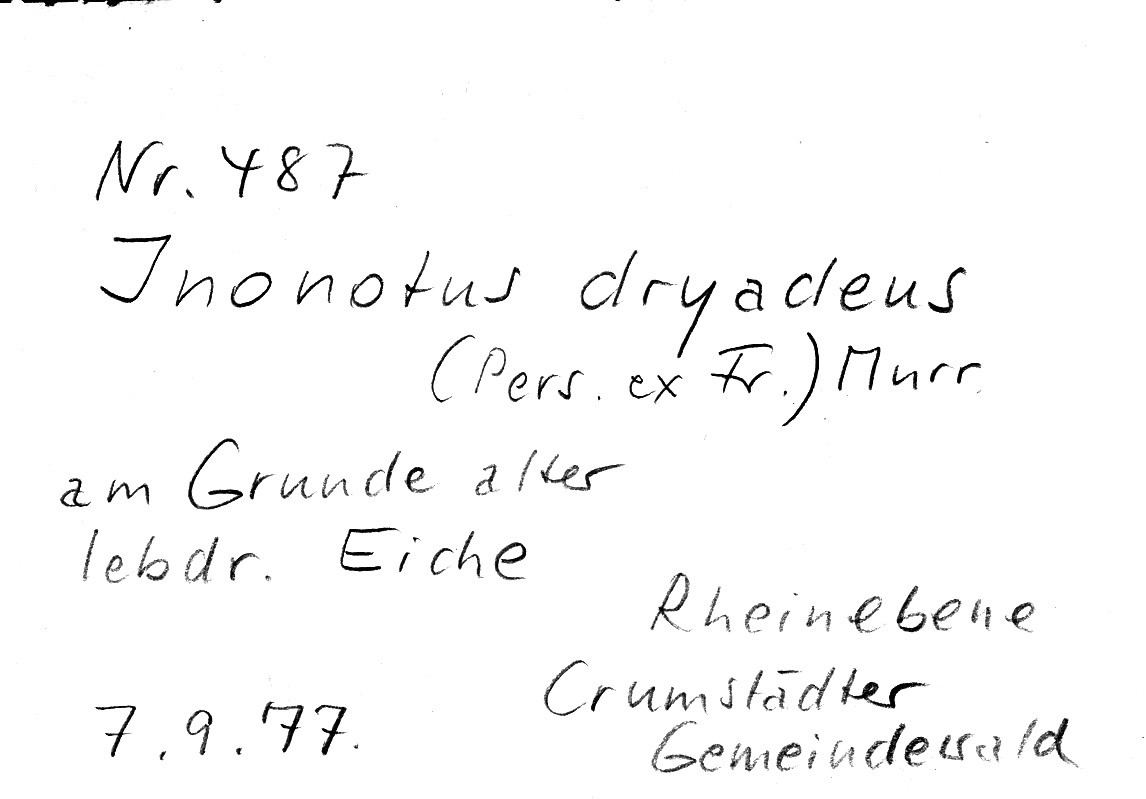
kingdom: Plantae
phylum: Tracheophyta
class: Magnoliopsida
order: Fagales
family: Fagaceae
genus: Quercus
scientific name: Quercus
